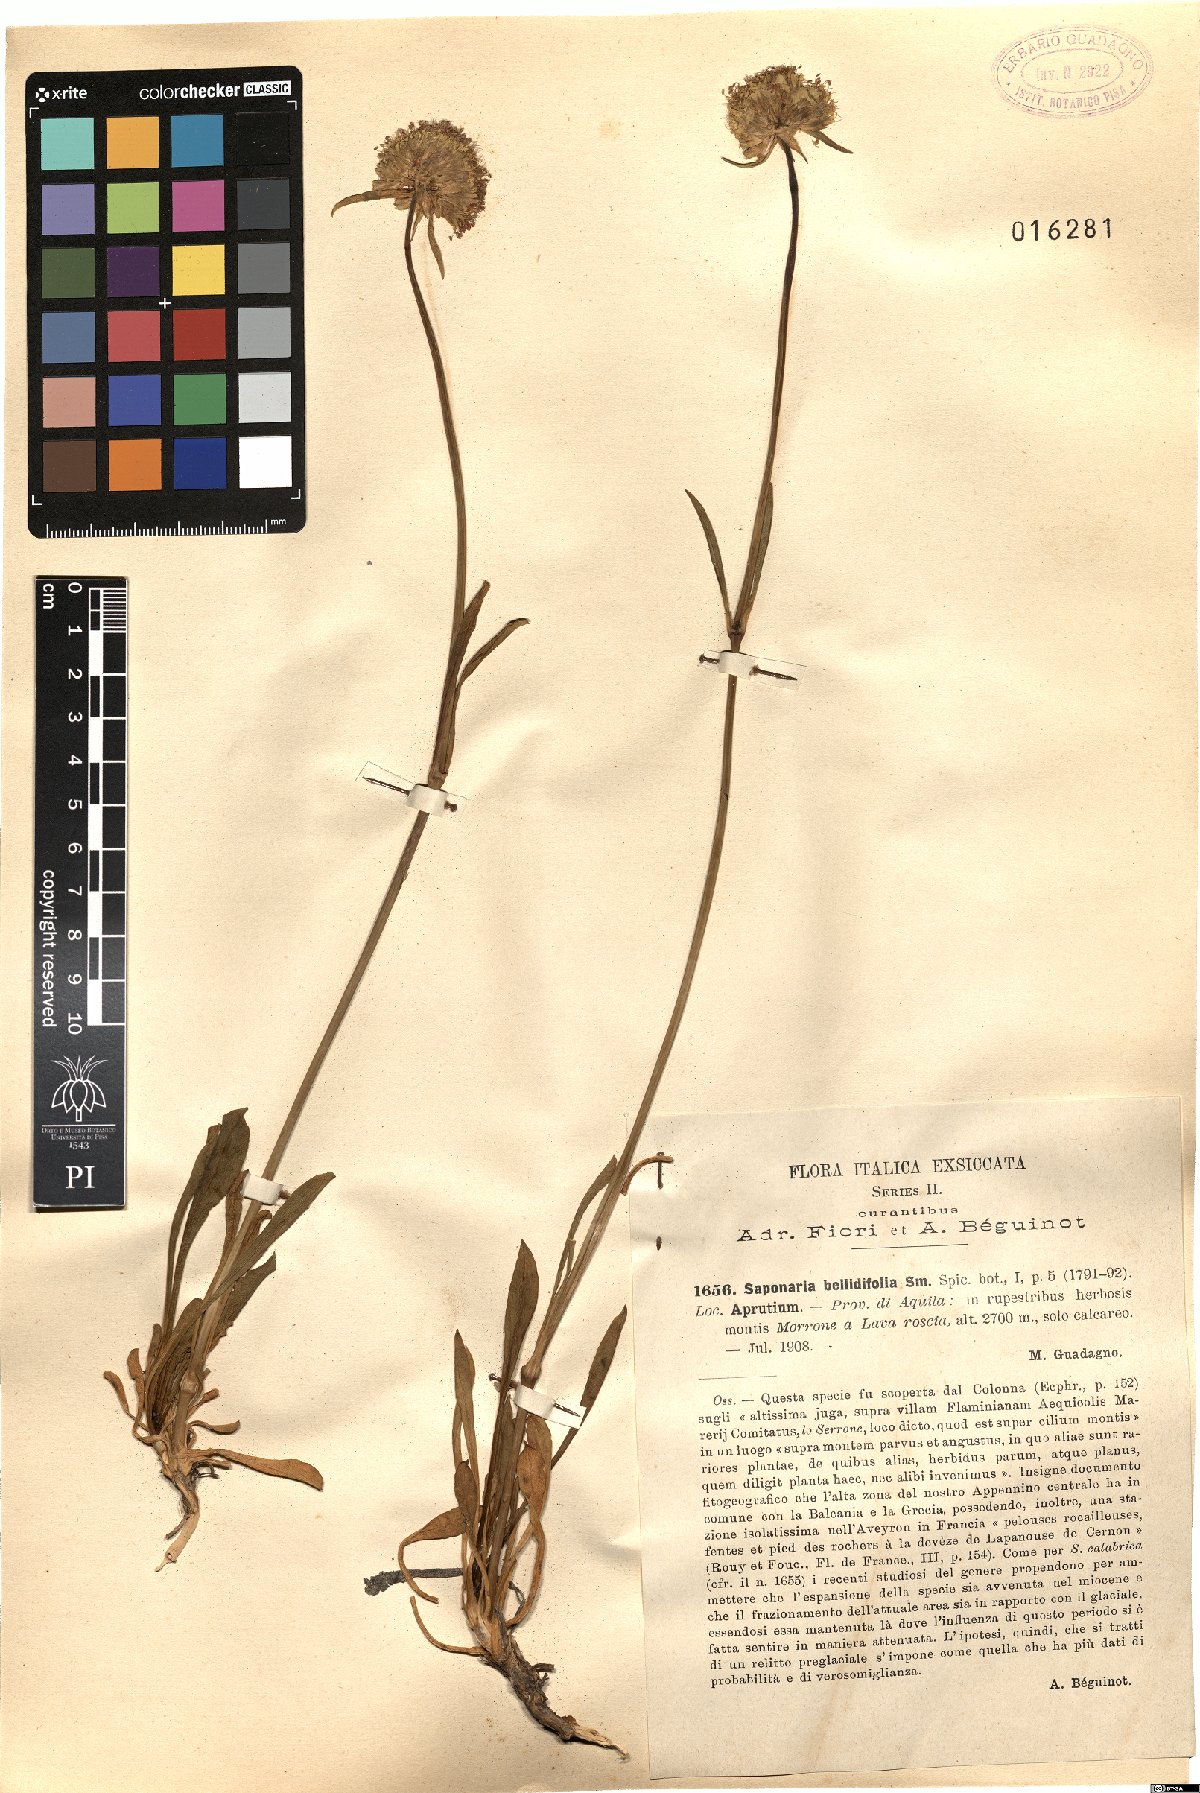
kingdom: Plantae
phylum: Tracheophyta
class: Magnoliopsida
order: Caryophyllales
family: Caryophyllaceae
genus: Saponaria
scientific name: Saponaria bellidifolia
